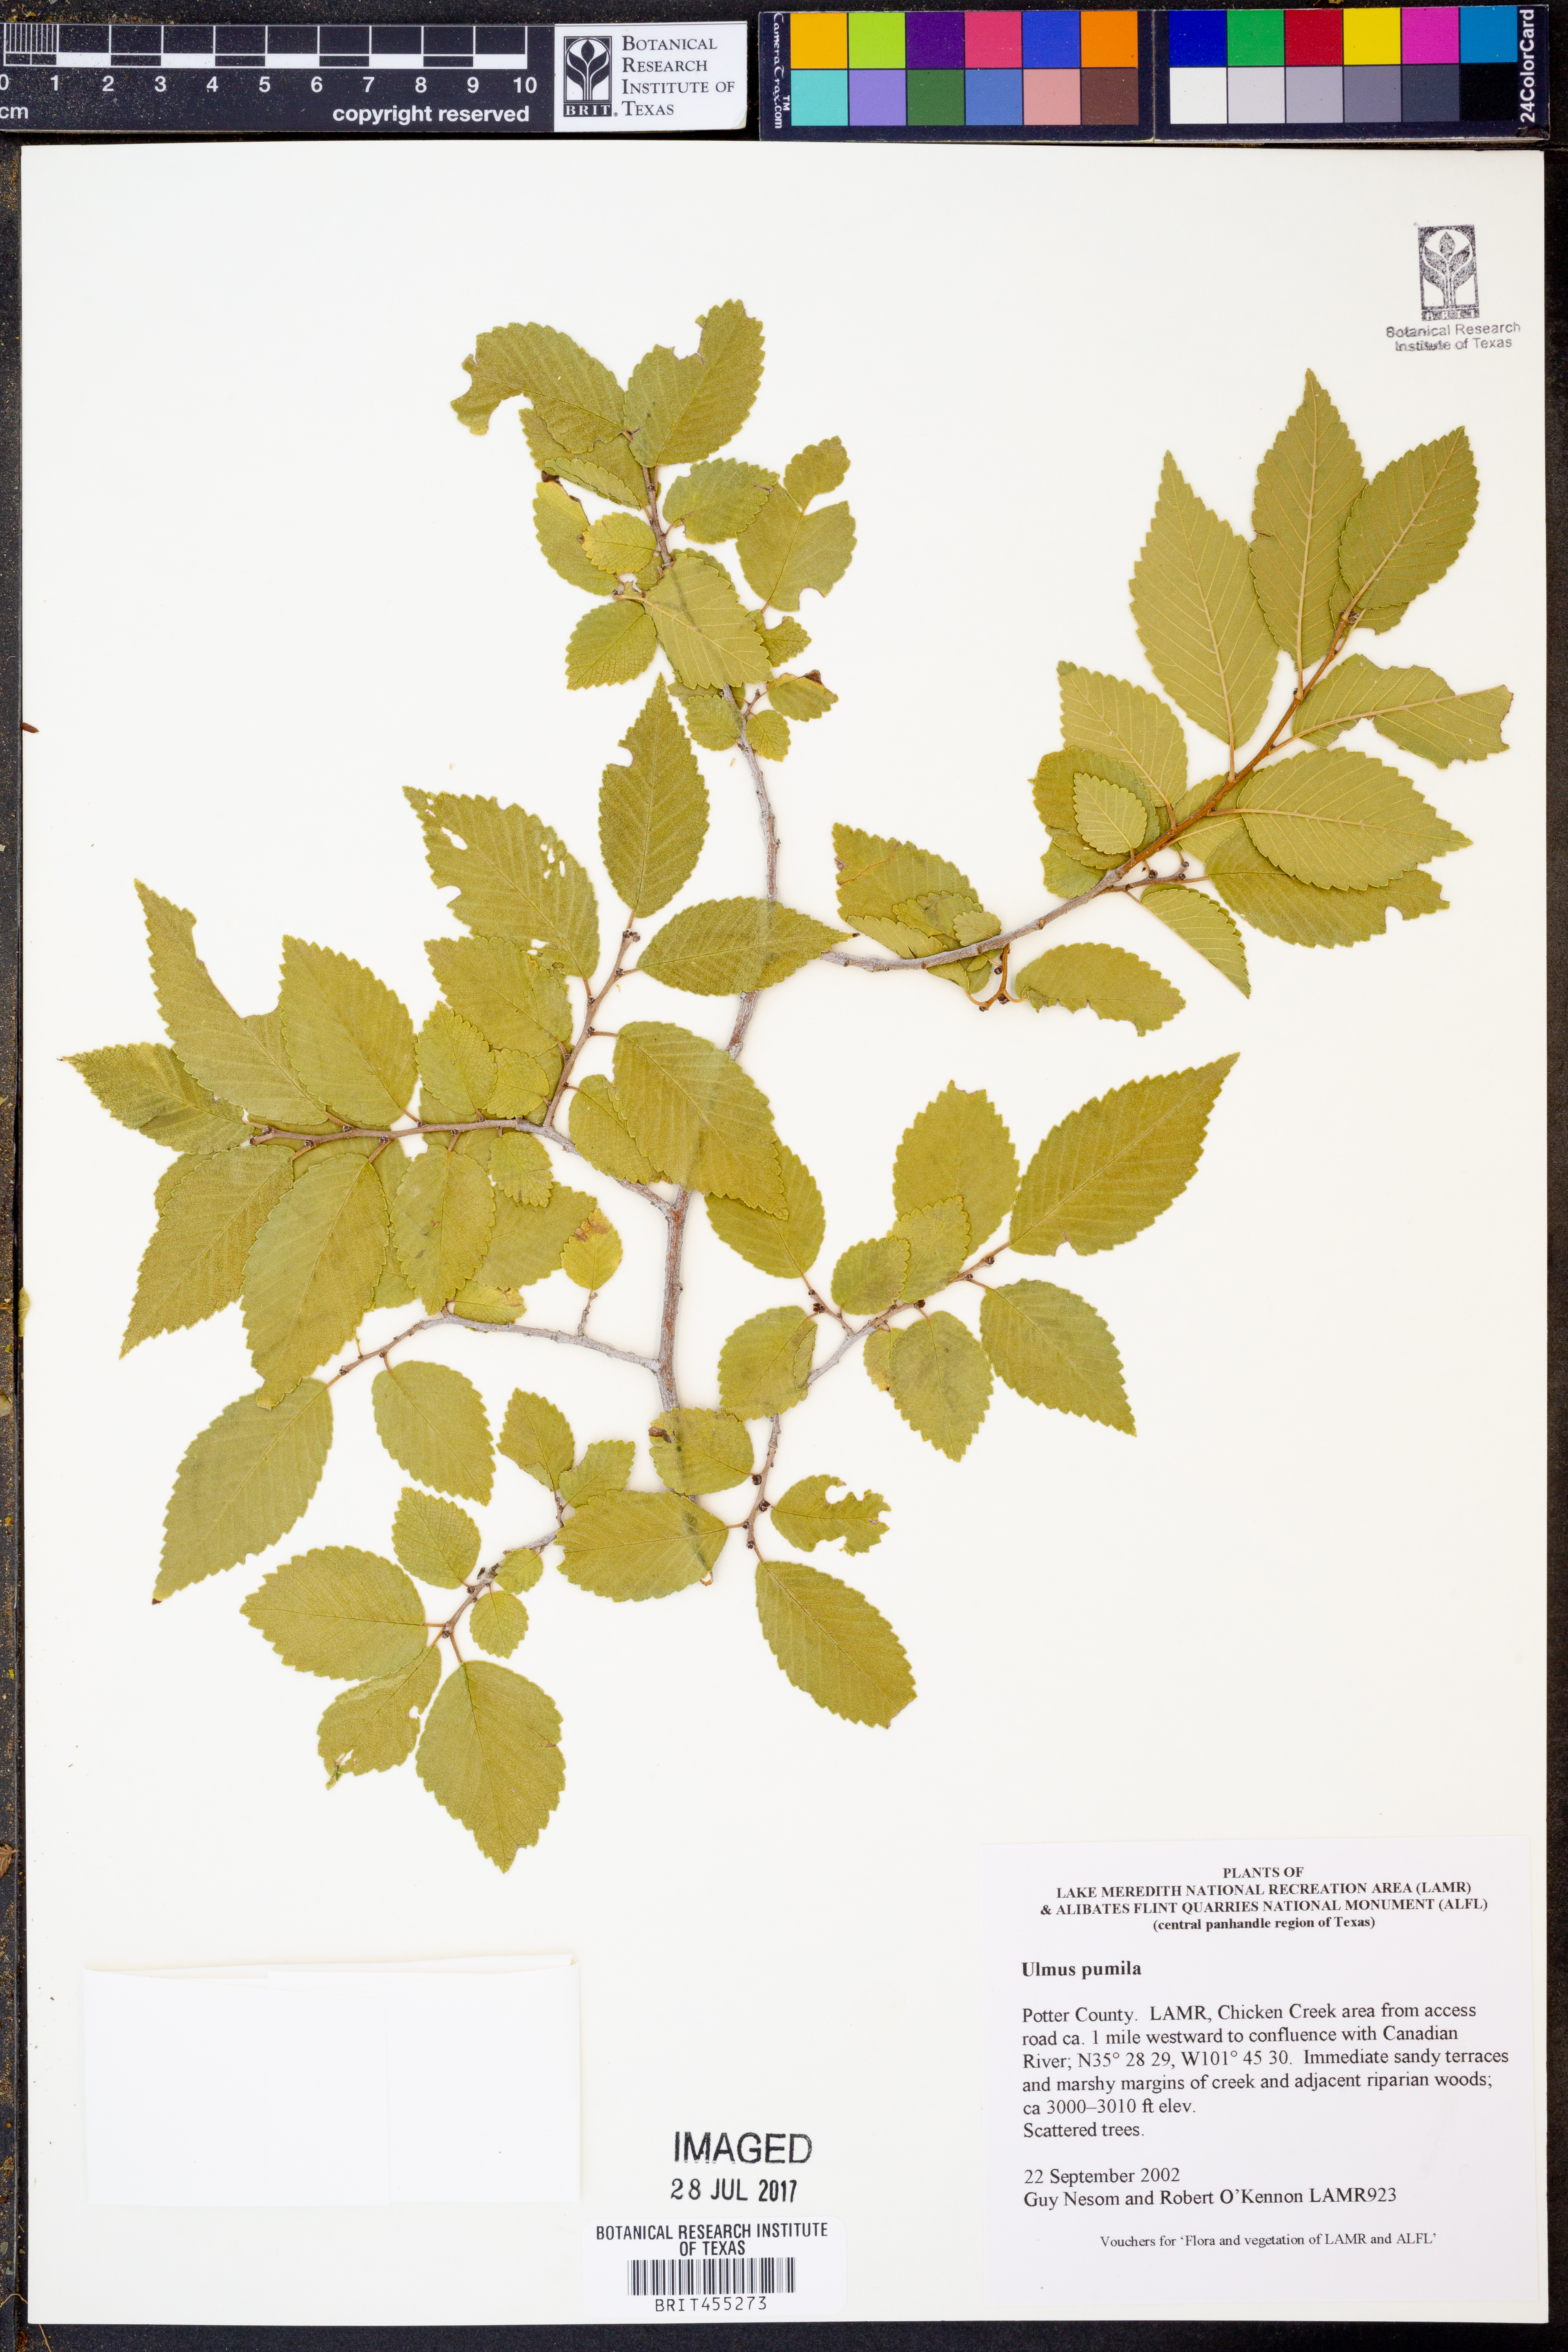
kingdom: Plantae
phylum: Tracheophyta
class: Magnoliopsida
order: Rosales
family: Ulmaceae
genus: Ulmus
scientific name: Ulmus pumila
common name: Siberian elm
